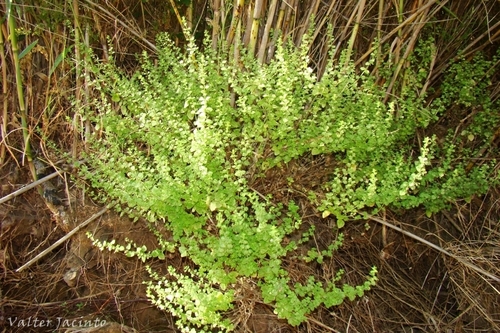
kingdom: Plantae
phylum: Tracheophyta
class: Magnoliopsida
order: Lamiales
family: Lamiaceae
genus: Clinopodium
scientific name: Clinopodium nepeta
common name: Lesser calamint
